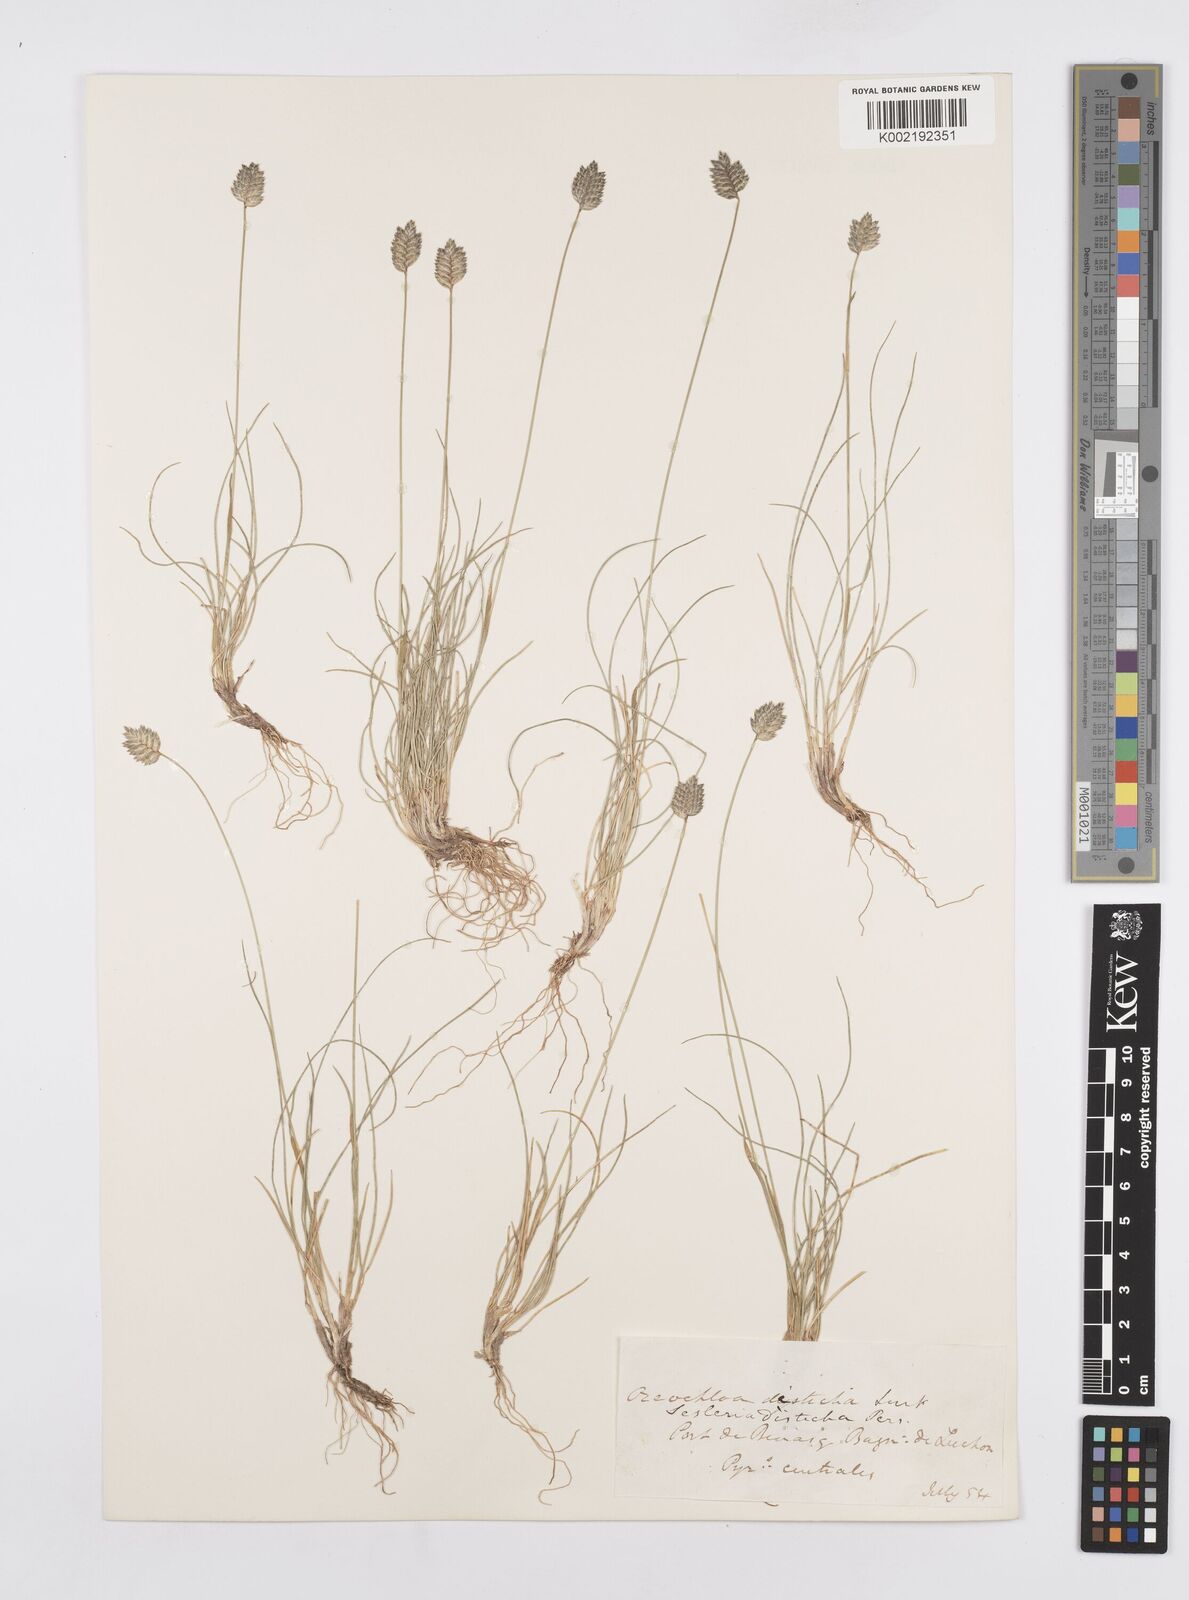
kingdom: Plantae
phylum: Tracheophyta
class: Liliopsida
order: Poales
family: Poaceae
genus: Oreochloa
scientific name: Oreochloa elegans
